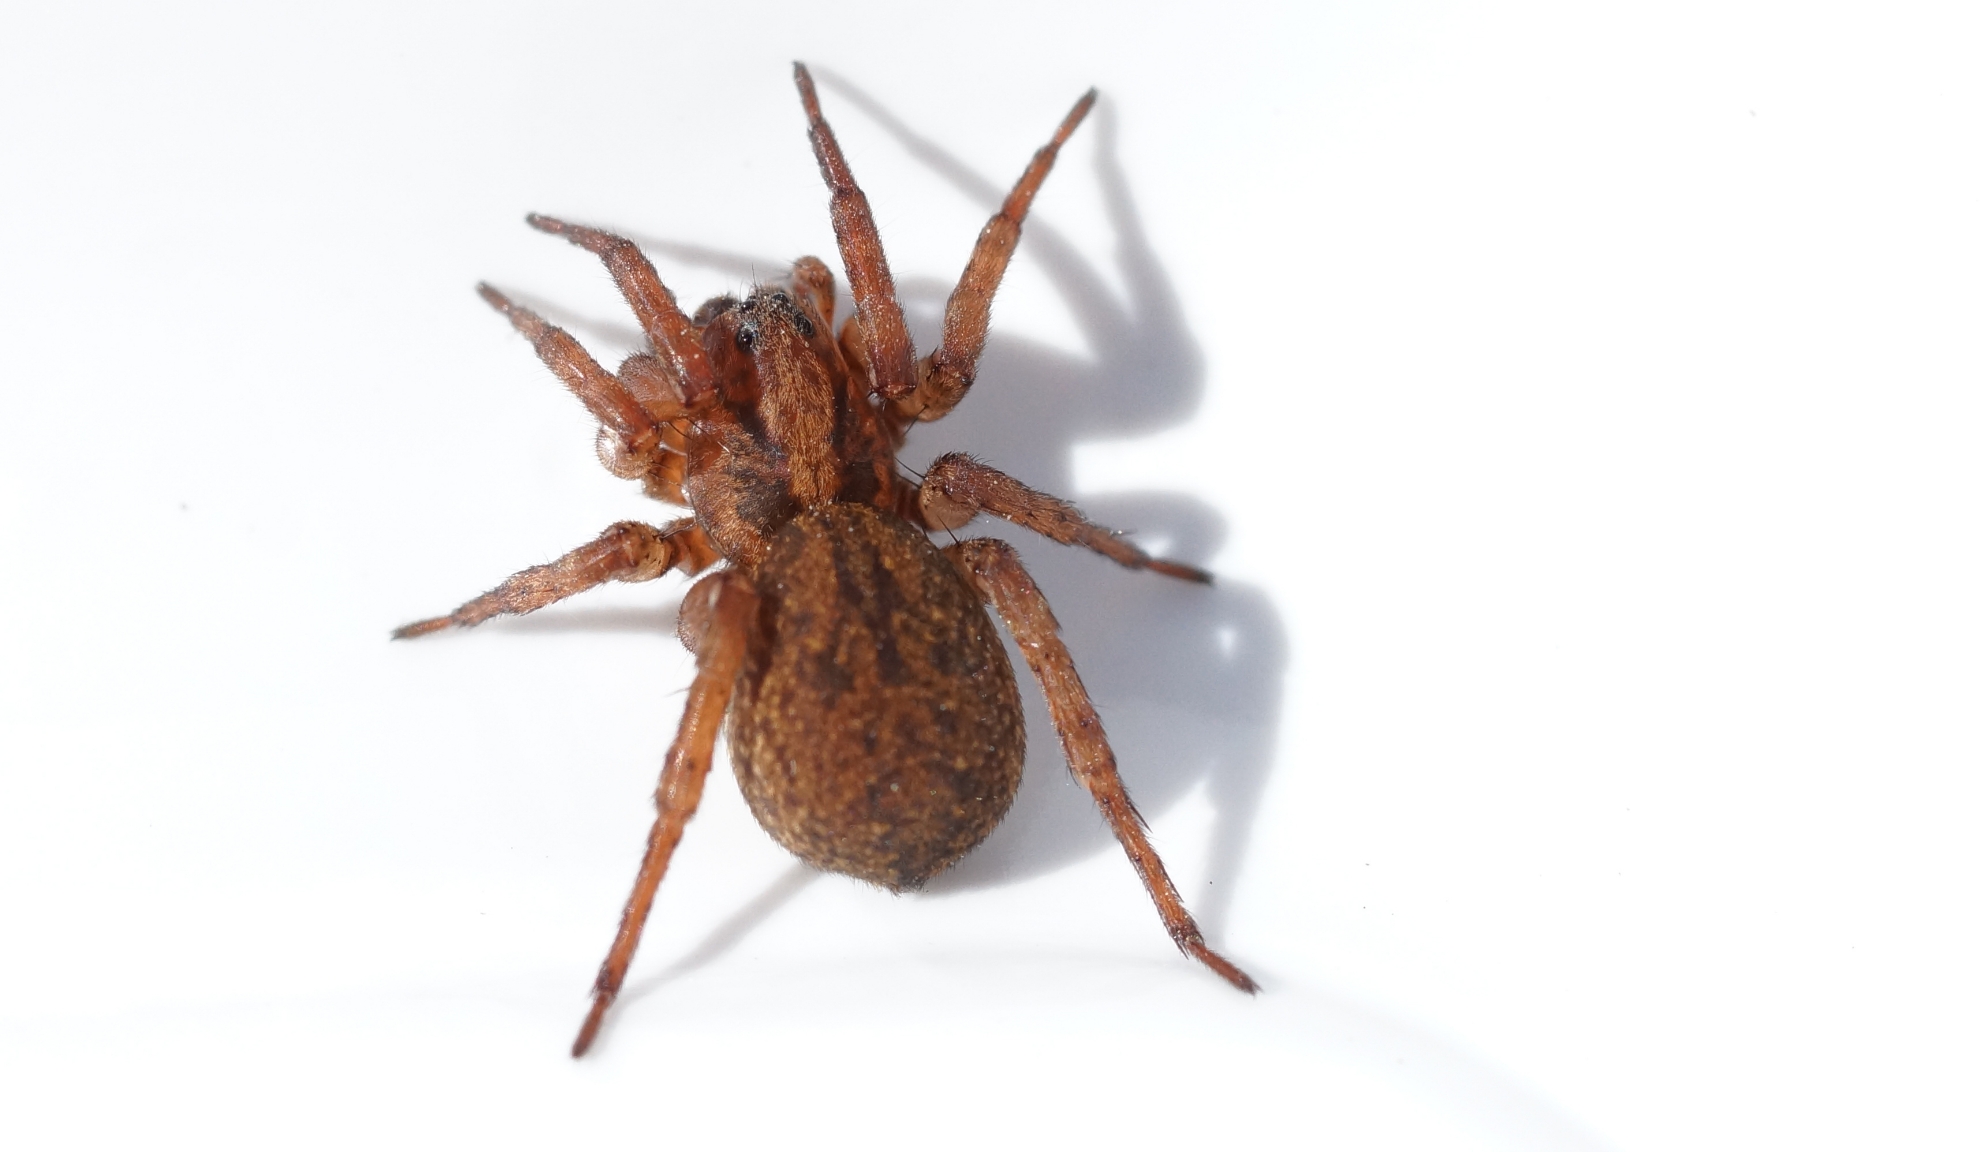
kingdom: Animalia
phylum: Arthropoda
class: Arachnida
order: Araneae
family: Lycosidae
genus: Trochosa
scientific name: Trochosa terricola
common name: Almindelig bjørneedderkop
